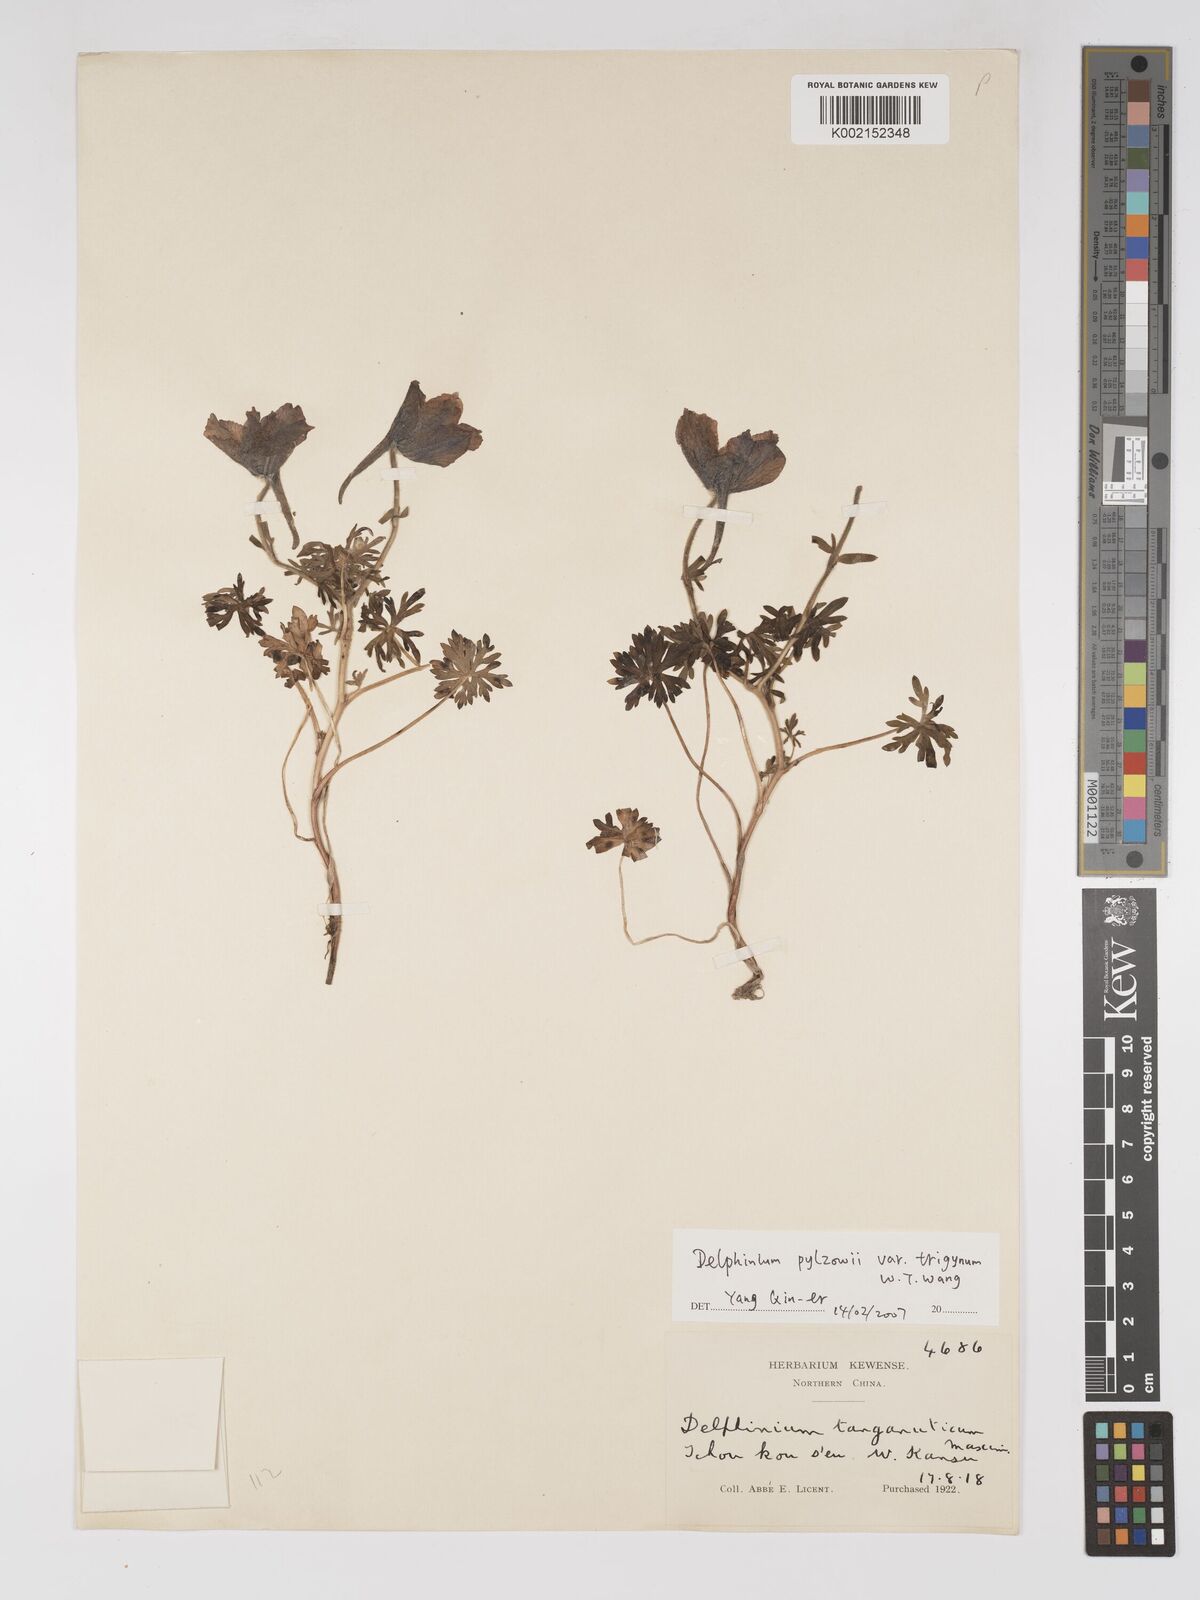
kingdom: Plantae
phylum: Tracheophyta
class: Magnoliopsida
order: Ranunculales
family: Ranunculaceae
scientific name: Ranunculaceae
